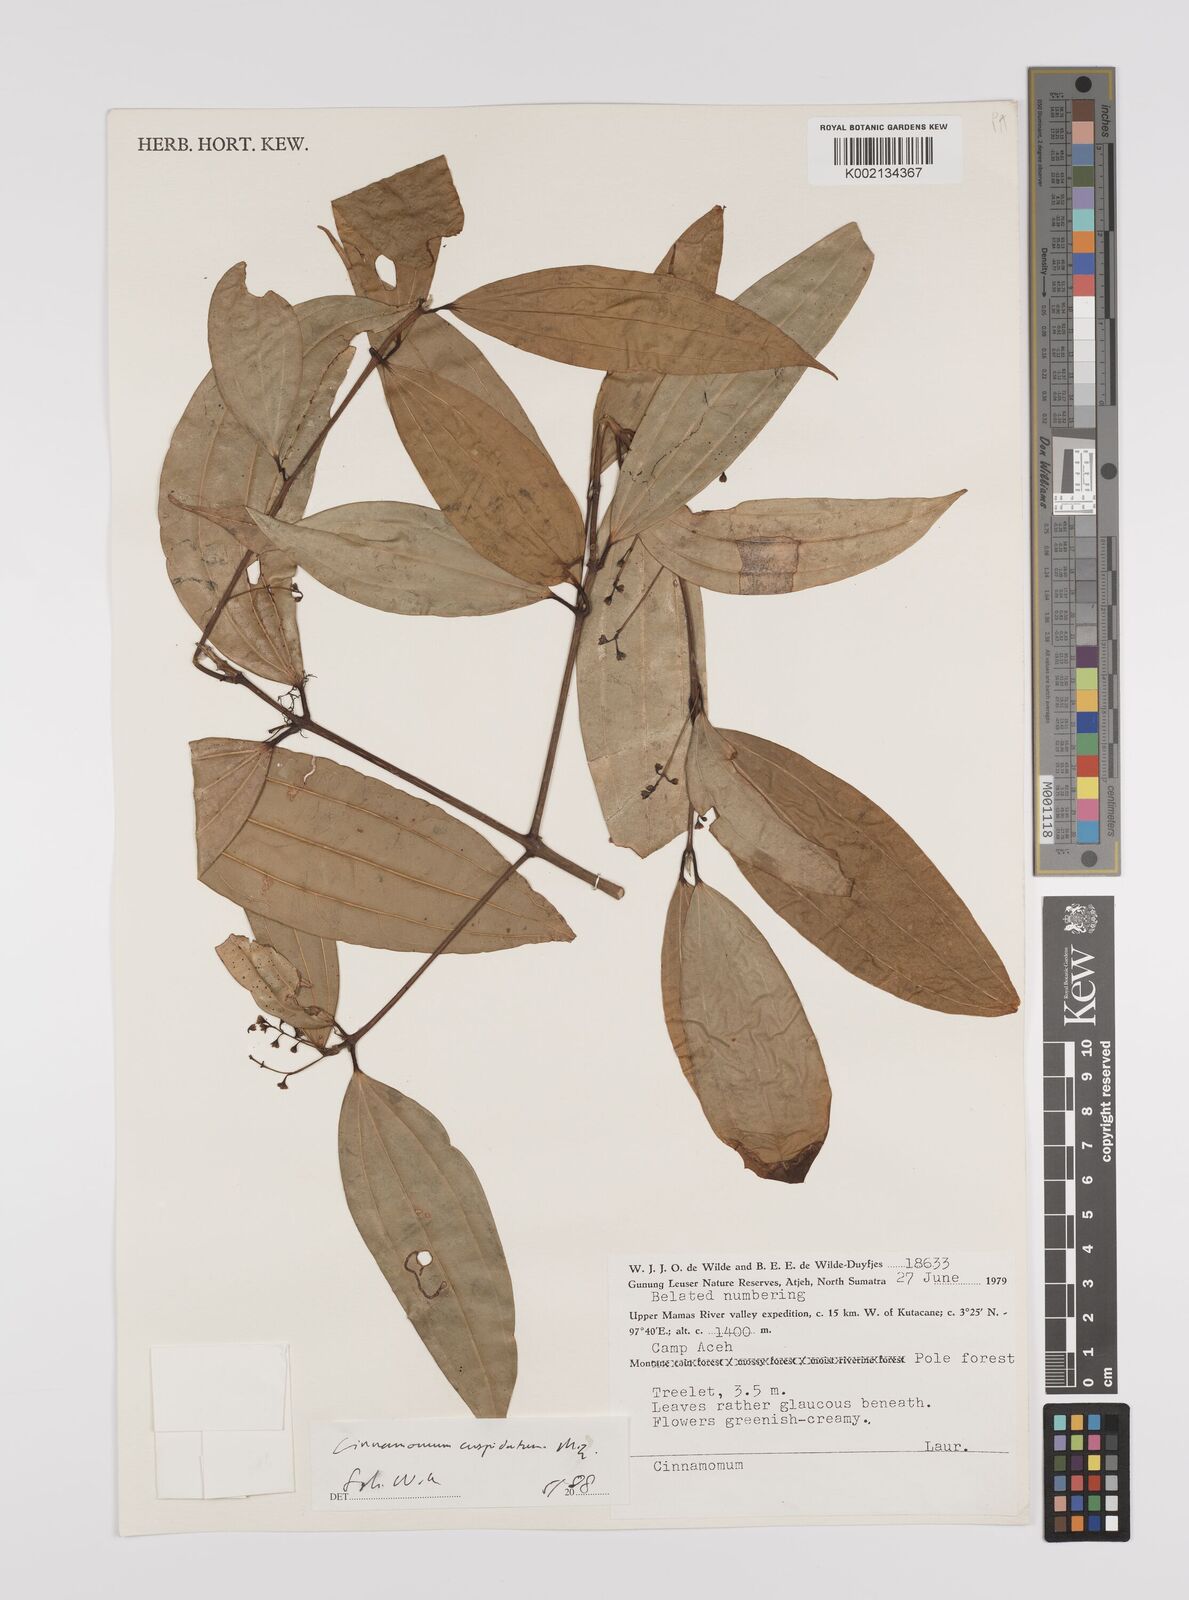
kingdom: Plantae
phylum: Tracheophyta
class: Magnoliopsida
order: Laurales
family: Lauraceae
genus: Cinnamomum
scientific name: Cinnamomum cuspidatum
